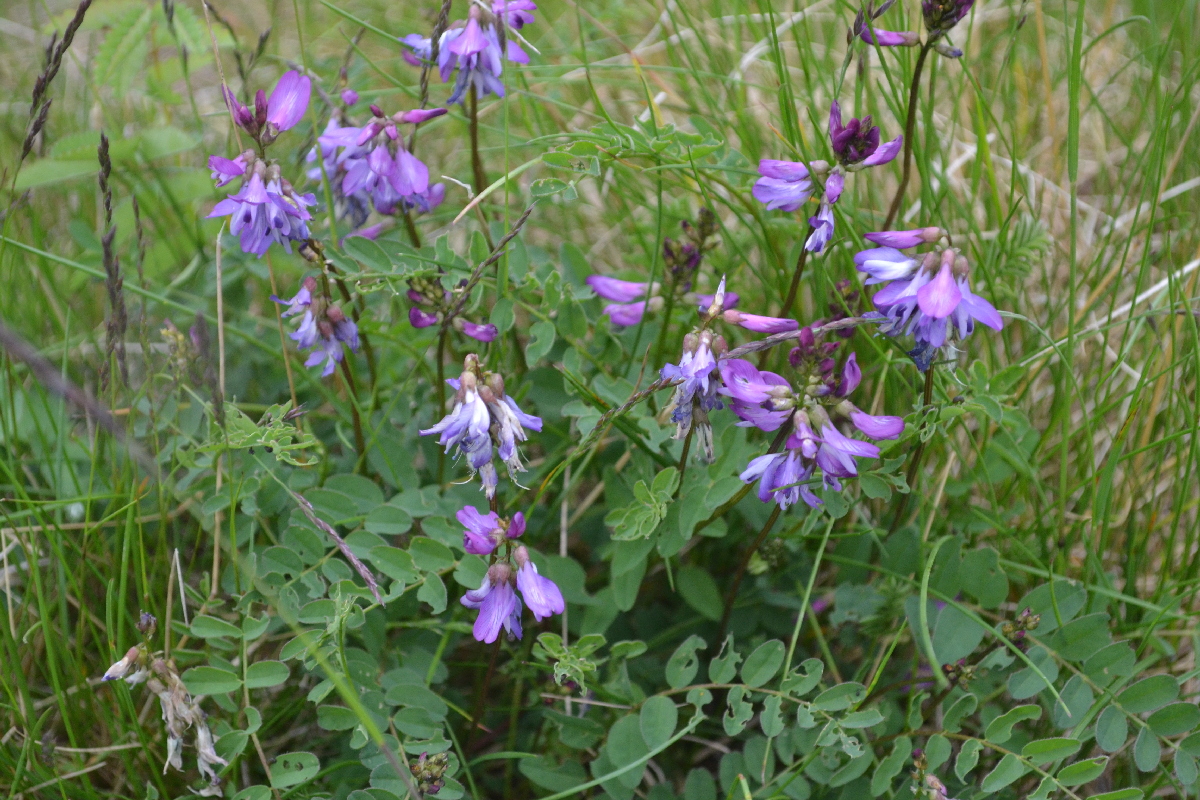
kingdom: Plantae
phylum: Tracheophyta
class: Magnoliopsida
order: Fabales
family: Fabaceae
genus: Astragalus
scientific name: Astragalus norvegicus
